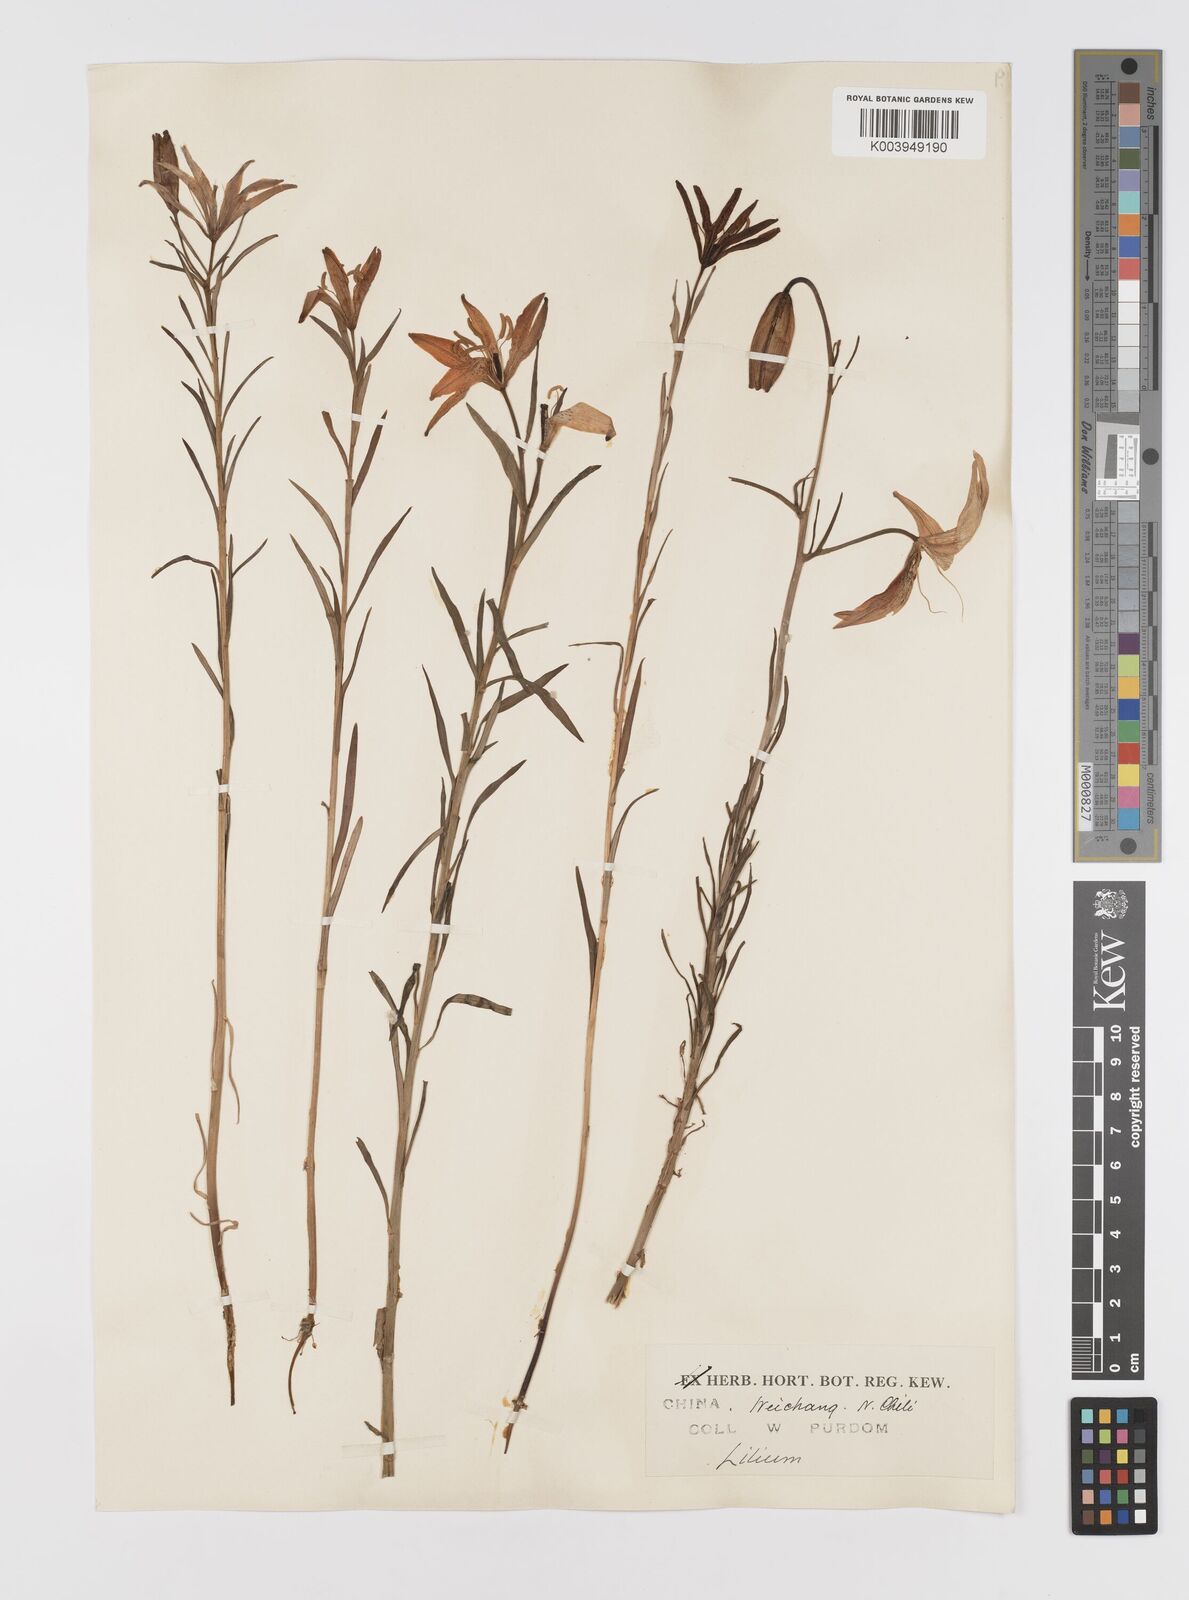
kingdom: Plantae
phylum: Tracheophyta
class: Liliopsida
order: Liliales
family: Liliaceae
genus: Lilium
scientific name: Lilium concolor
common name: Morning-star lily
